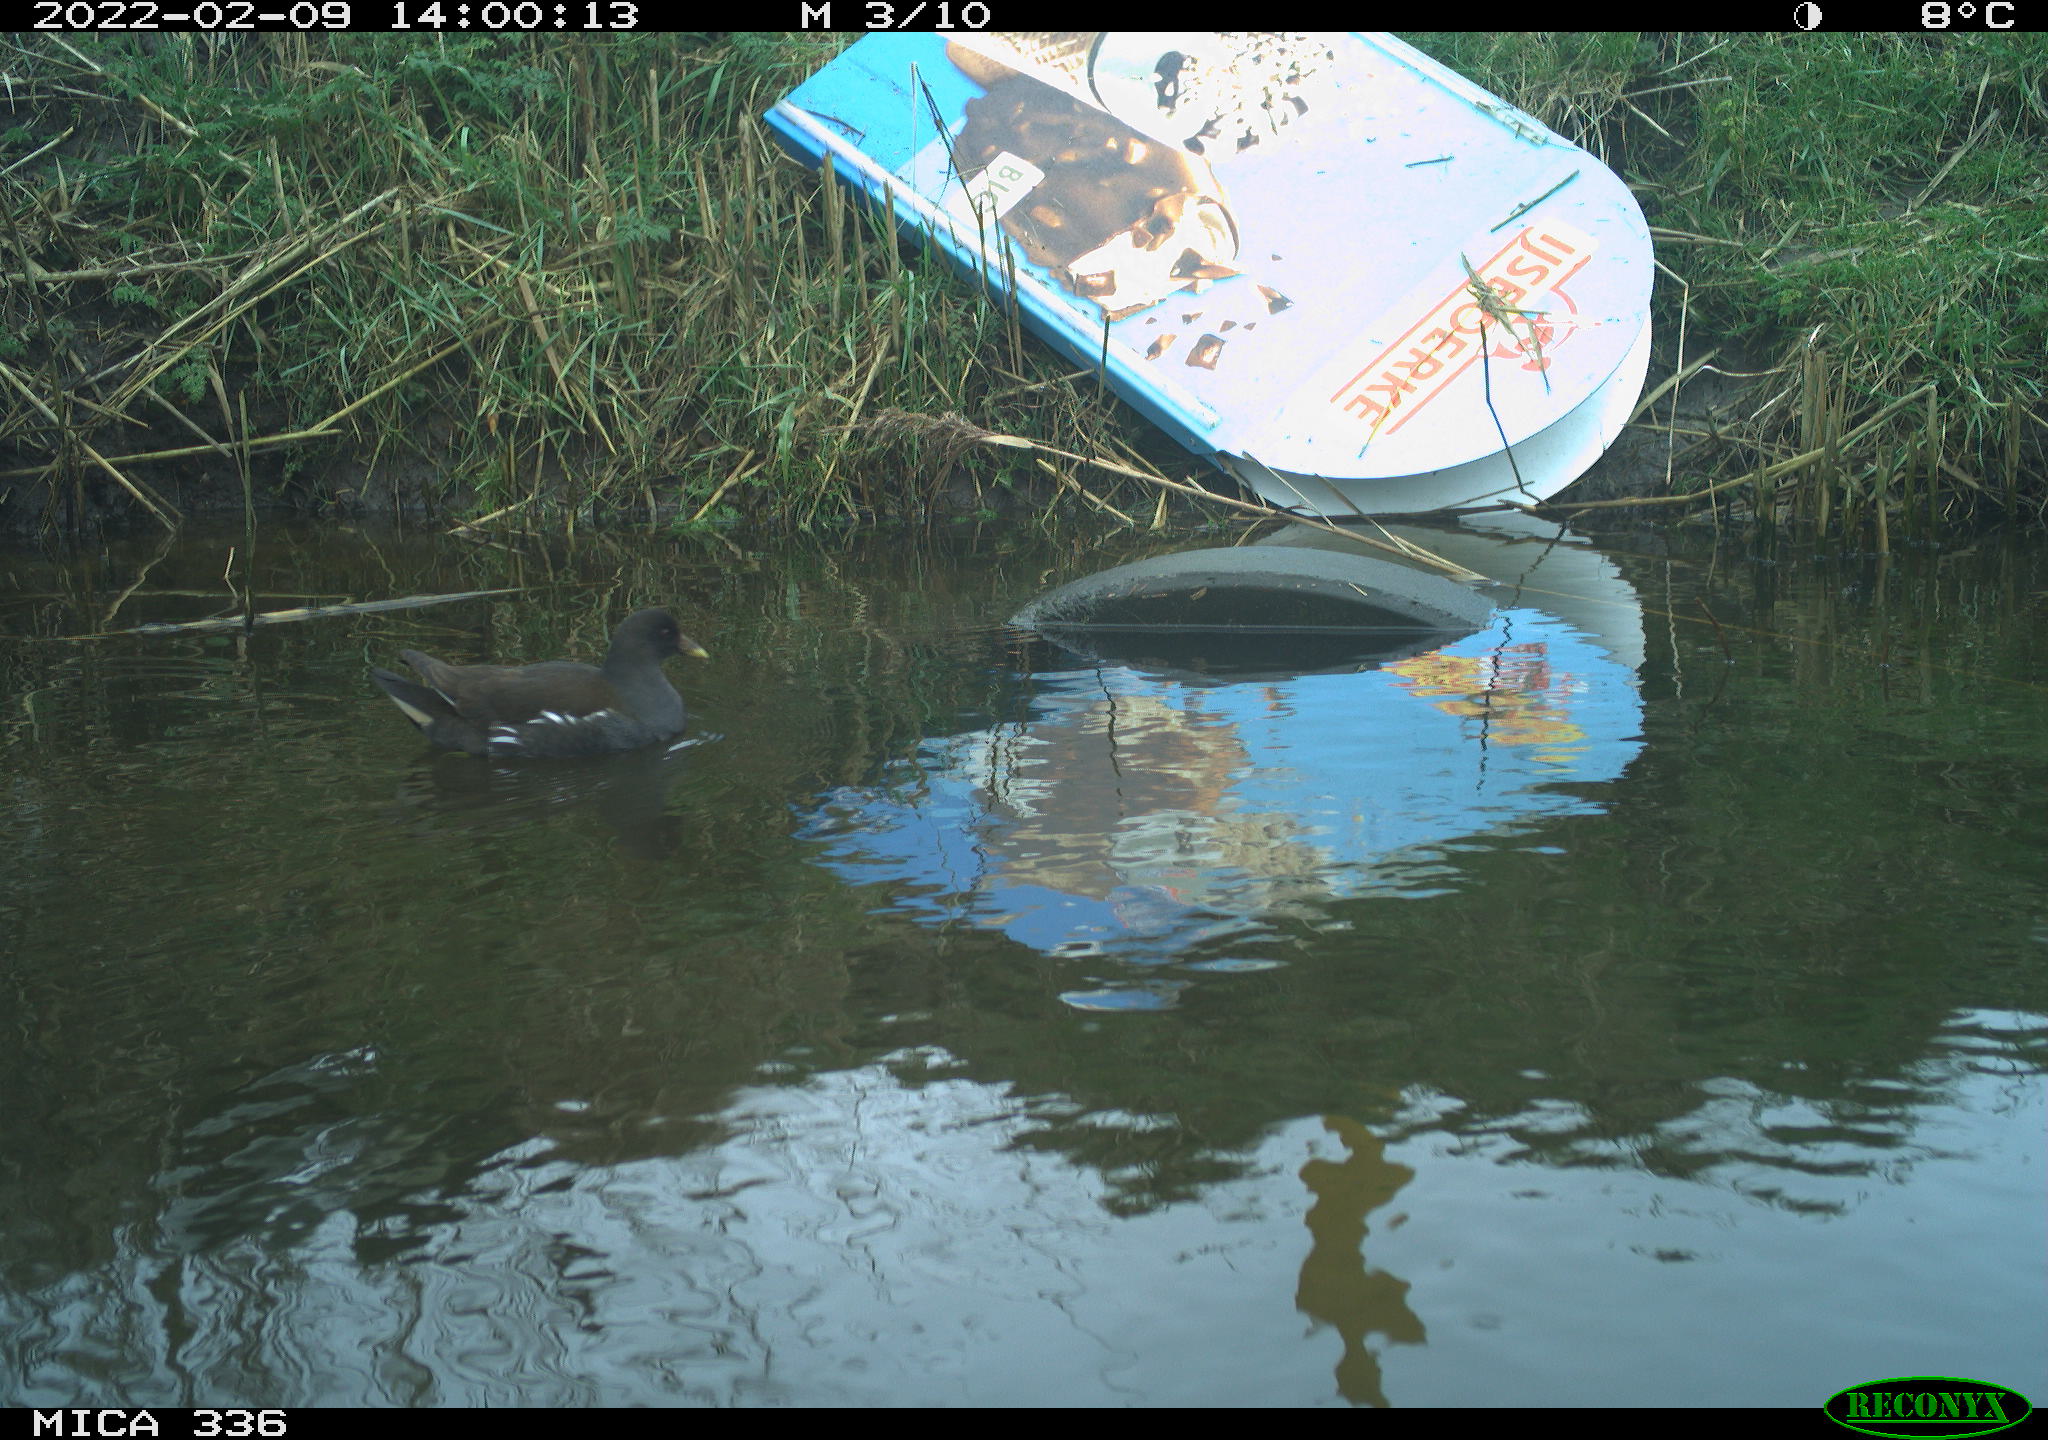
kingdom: Animalia
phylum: Chordata
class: Aves
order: Gruiformes
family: Rallidae
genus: Gallinula
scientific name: Gallinula chloropus
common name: Common moorhen
